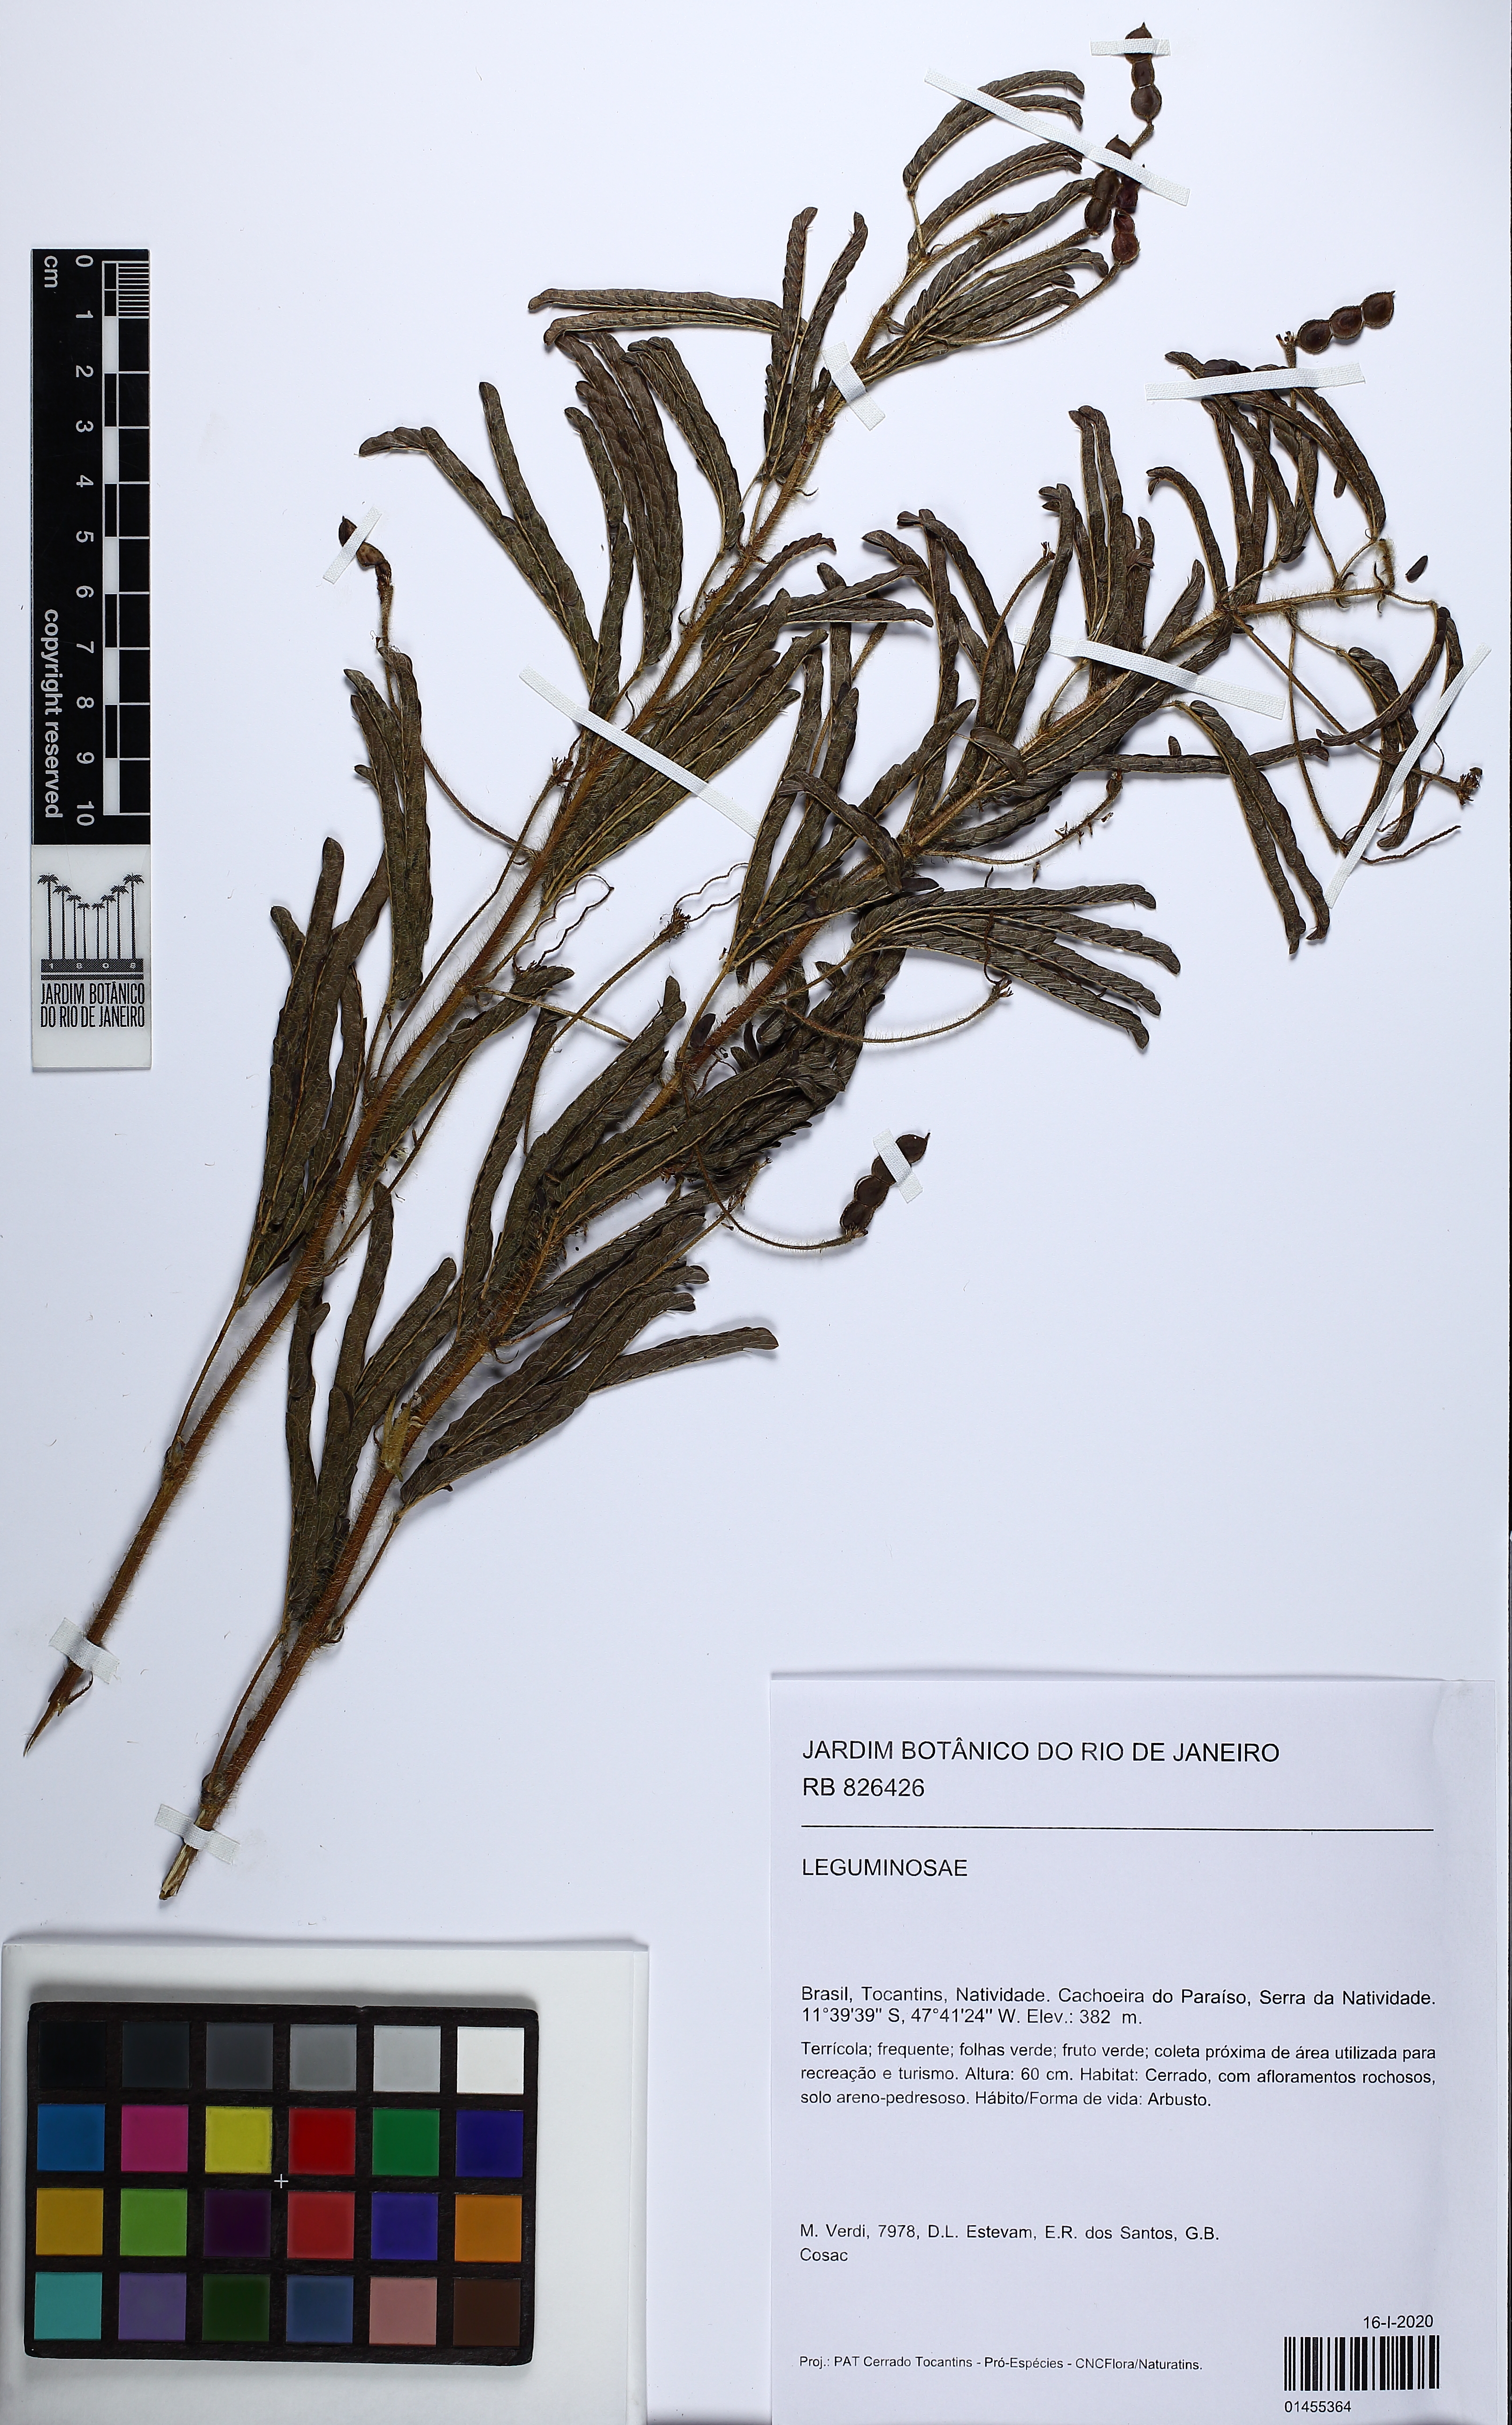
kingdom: Plantae
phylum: Tracheophyta
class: Magnoliopsida
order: Fabales
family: Fabaceae
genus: Mimosa
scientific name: Mimosa hirsutissima
